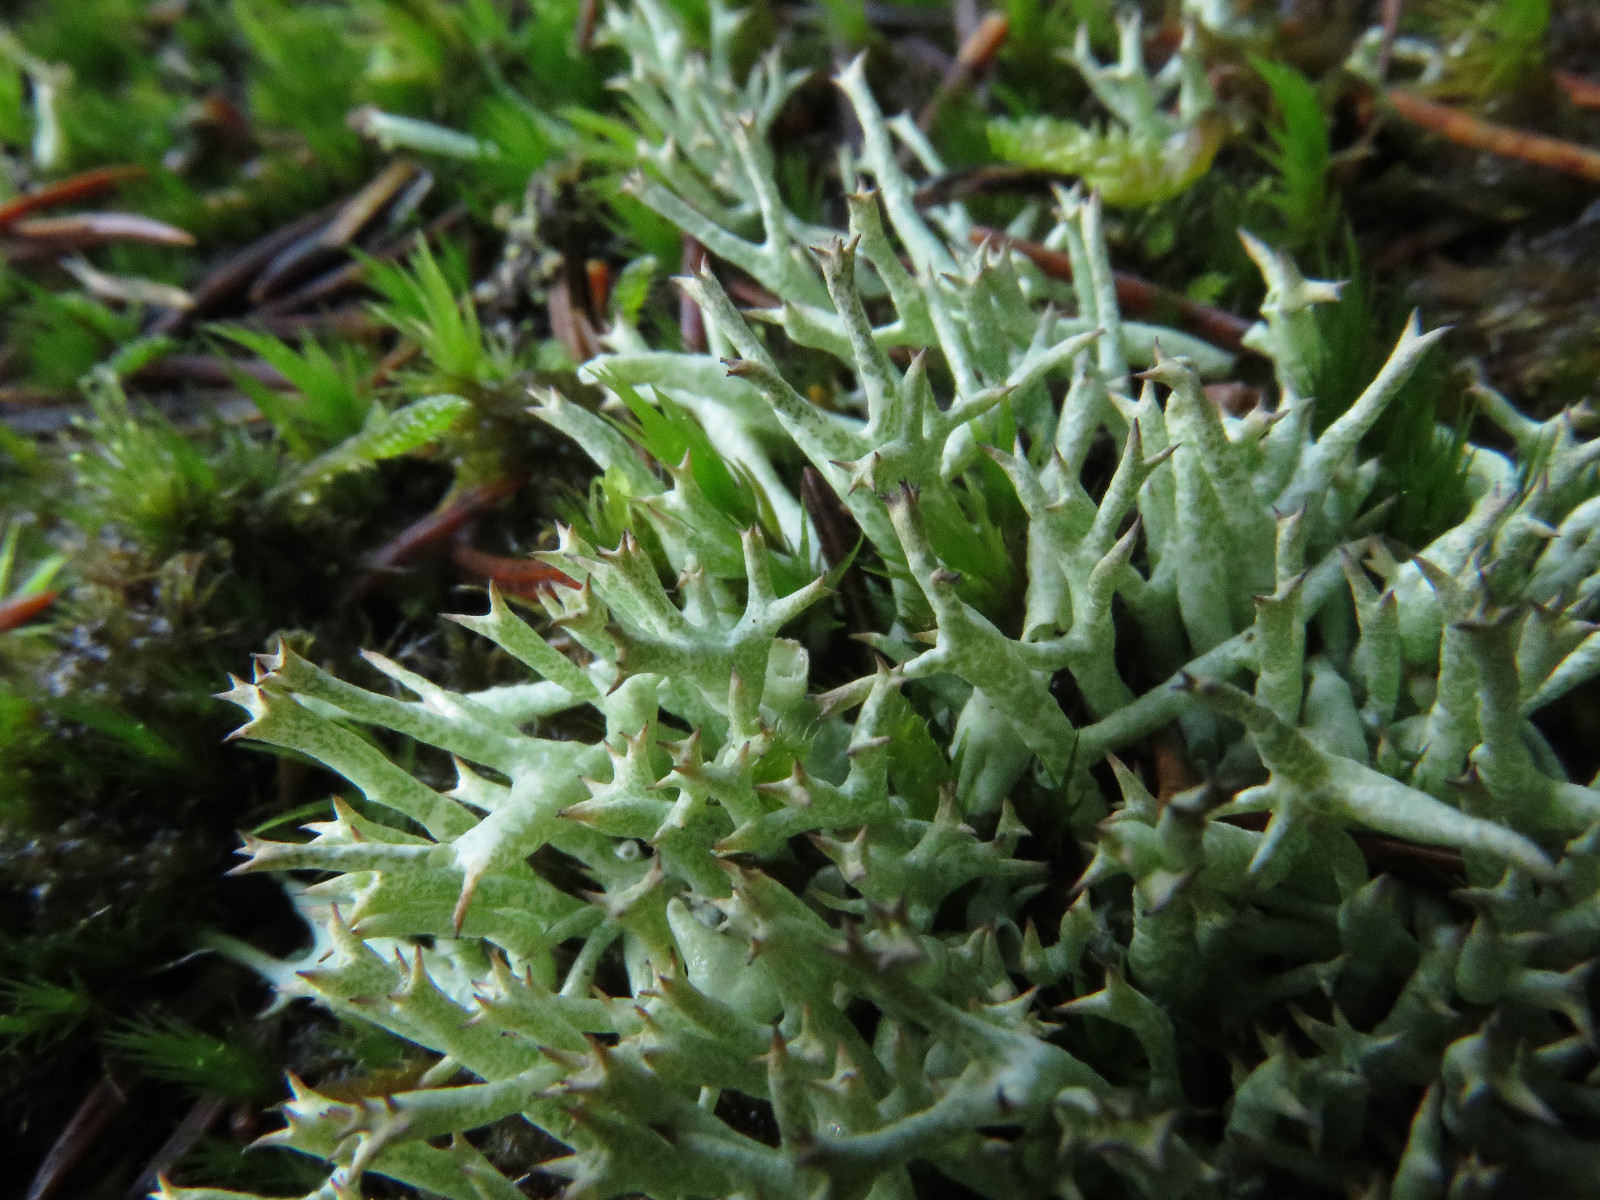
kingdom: Fungi
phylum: Ascomycota
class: Lecanoromycetes
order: Lecanorales
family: Cladoniaceae
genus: Cladonia
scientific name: Cladonia uncialis
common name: pigget bægerlav
